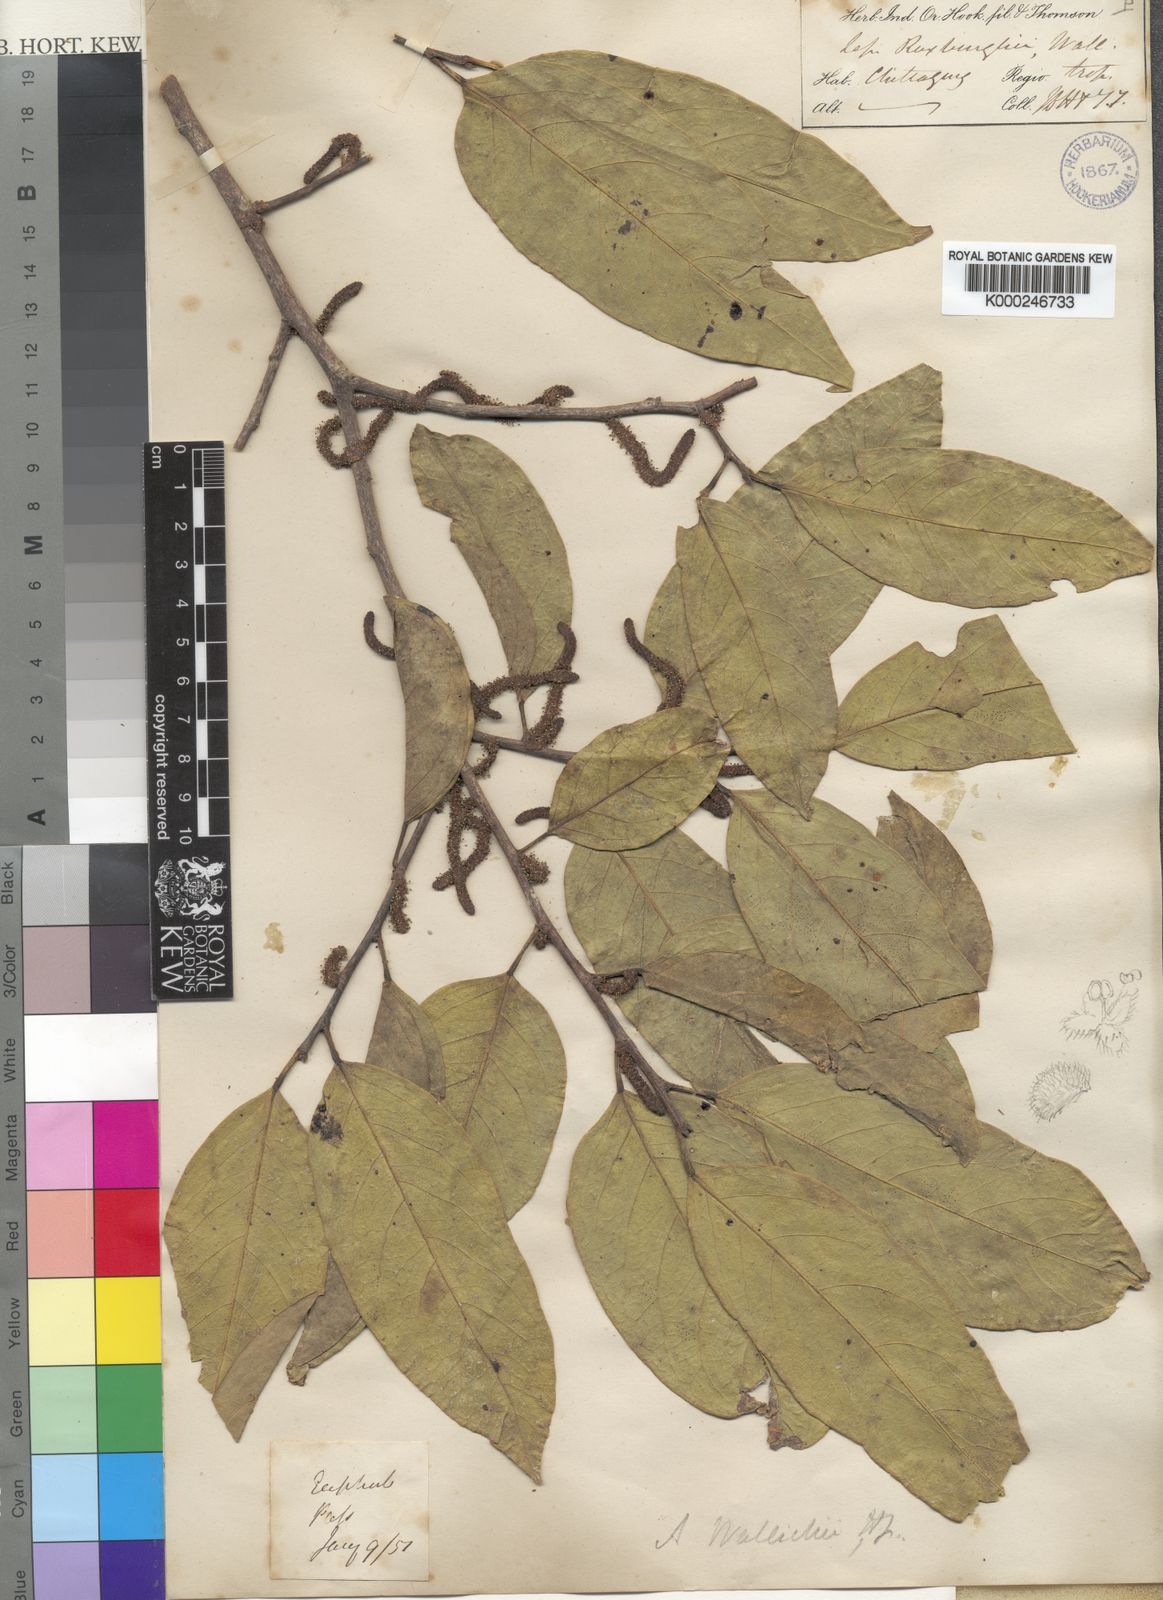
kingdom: Plantae
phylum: Tracheophyta
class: Magnoliopsida
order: Malpighiales
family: Phyllanthaceae
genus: Aporosa
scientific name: Aporosa wallichii
